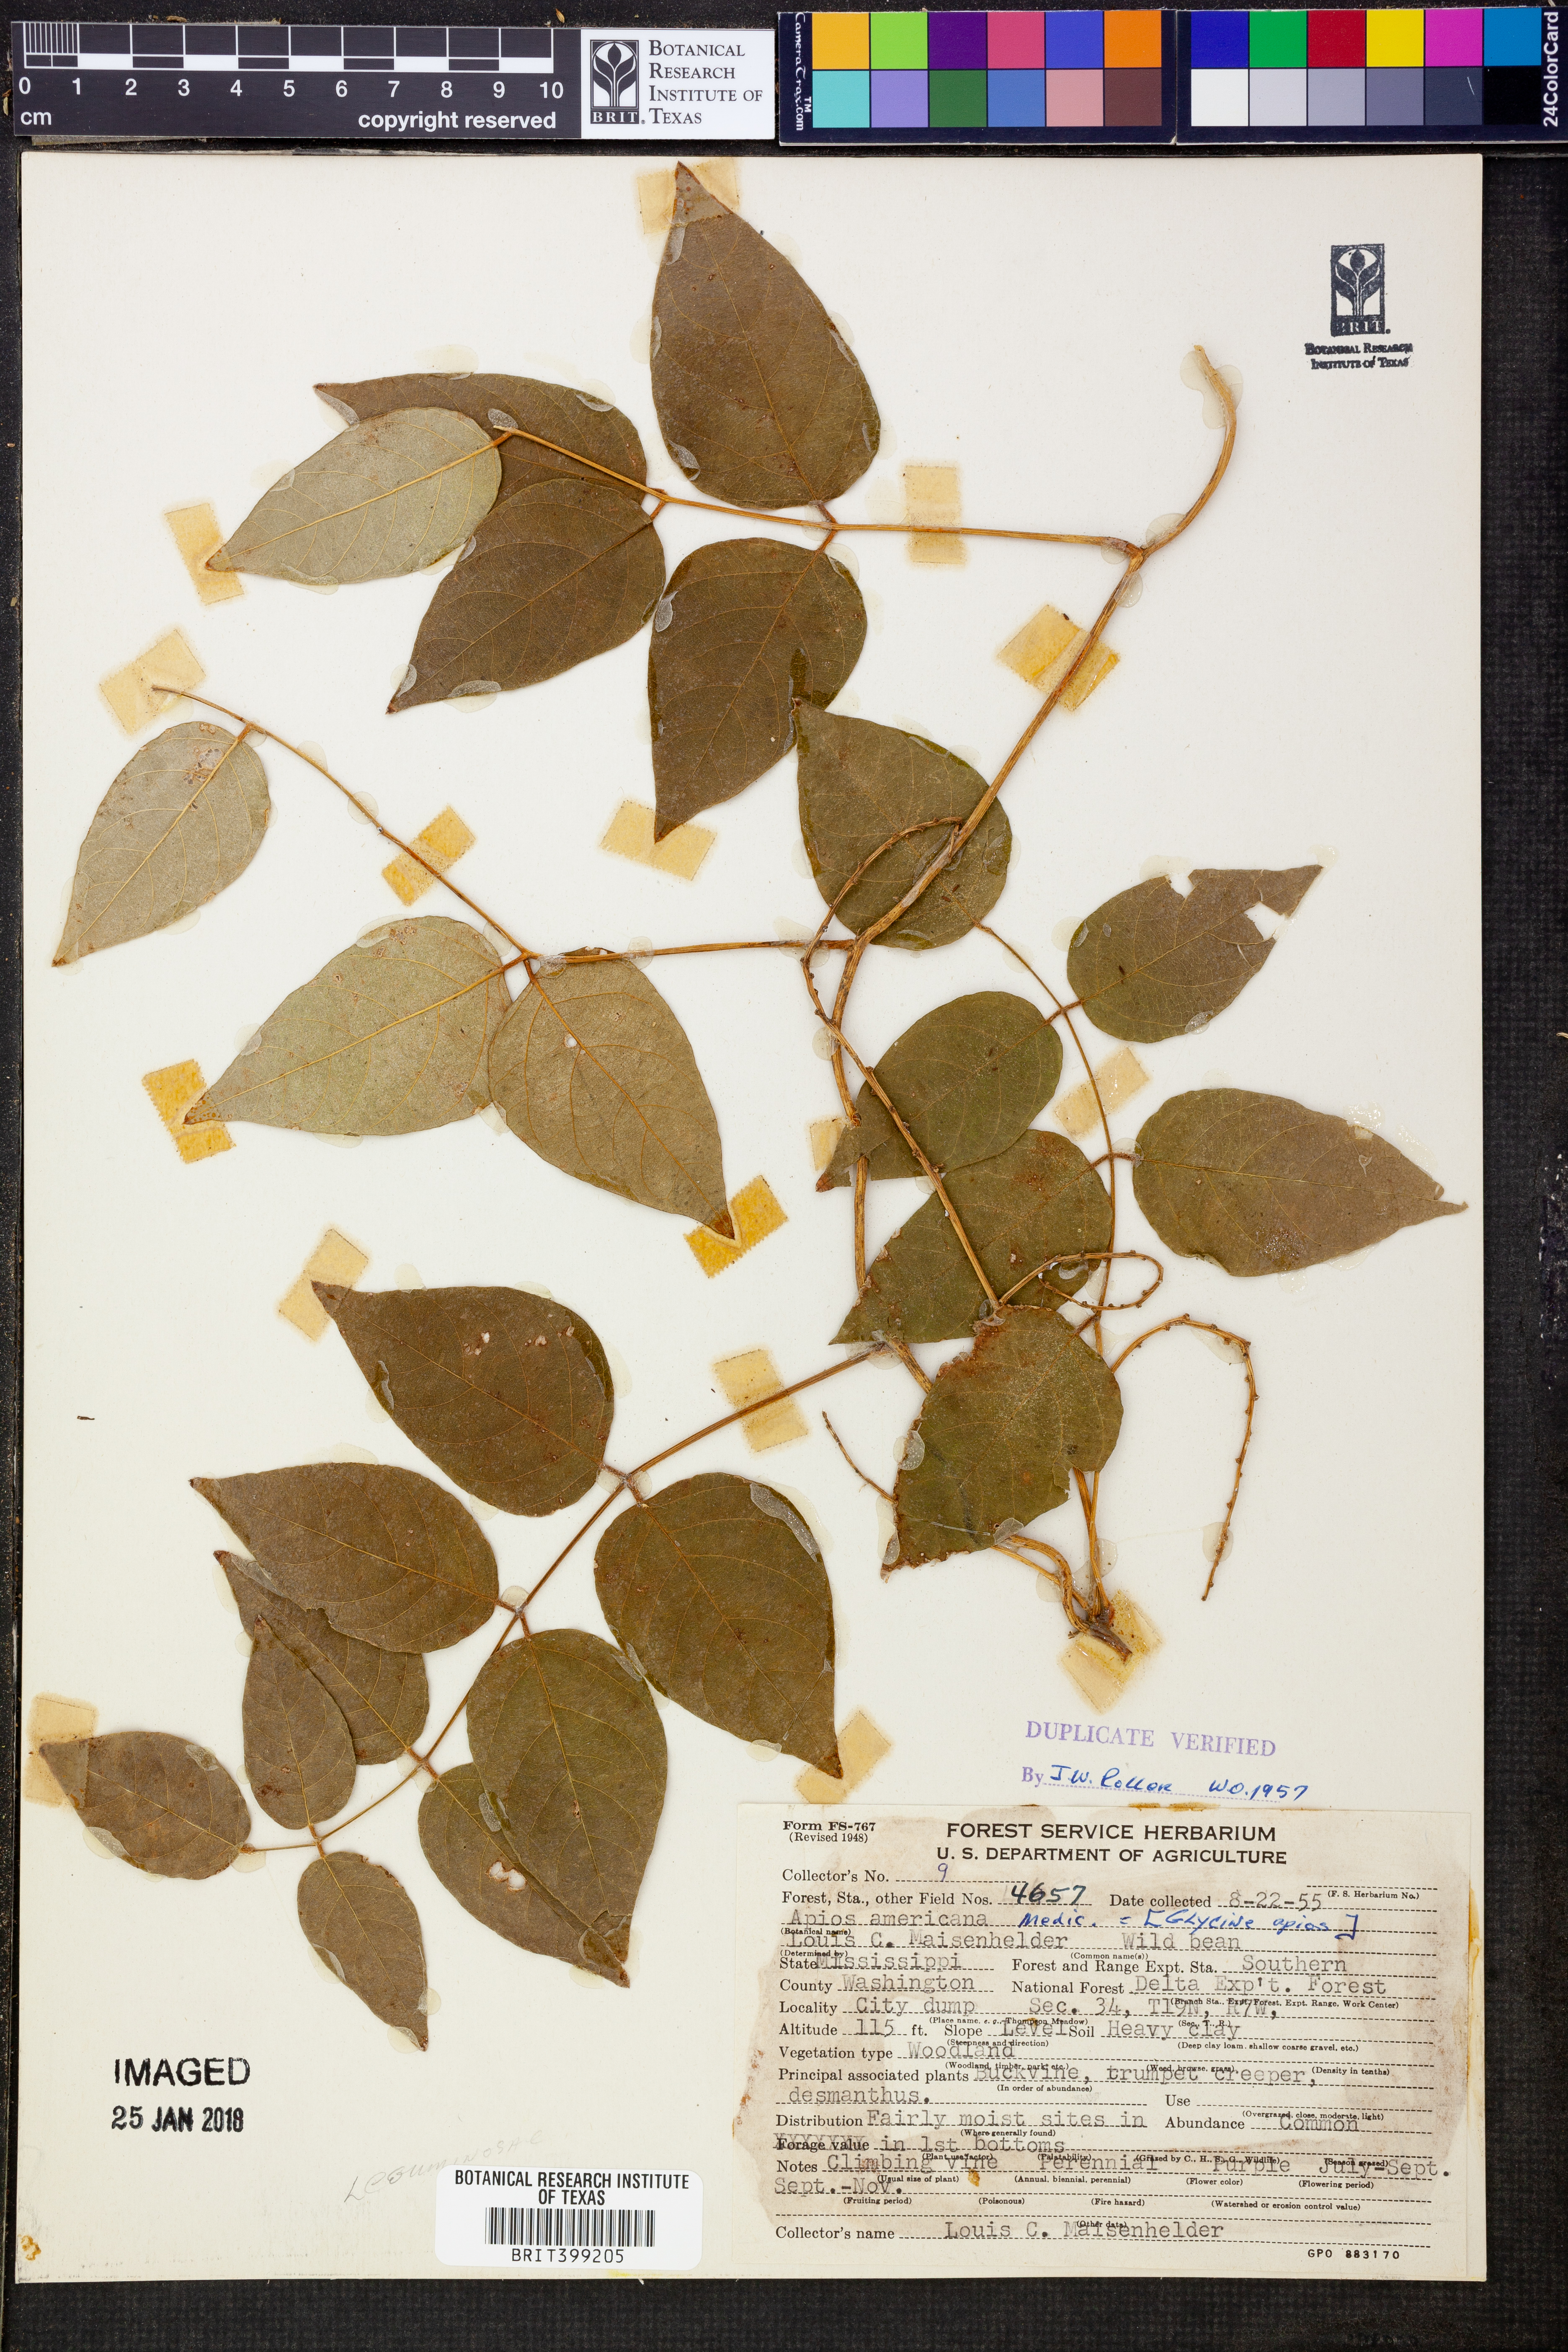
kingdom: Plantae
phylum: Tracheophyta
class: Magnoliopsida
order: Fabales
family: Fabaceae
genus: Apios
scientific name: Apios americana
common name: American potato-bean
